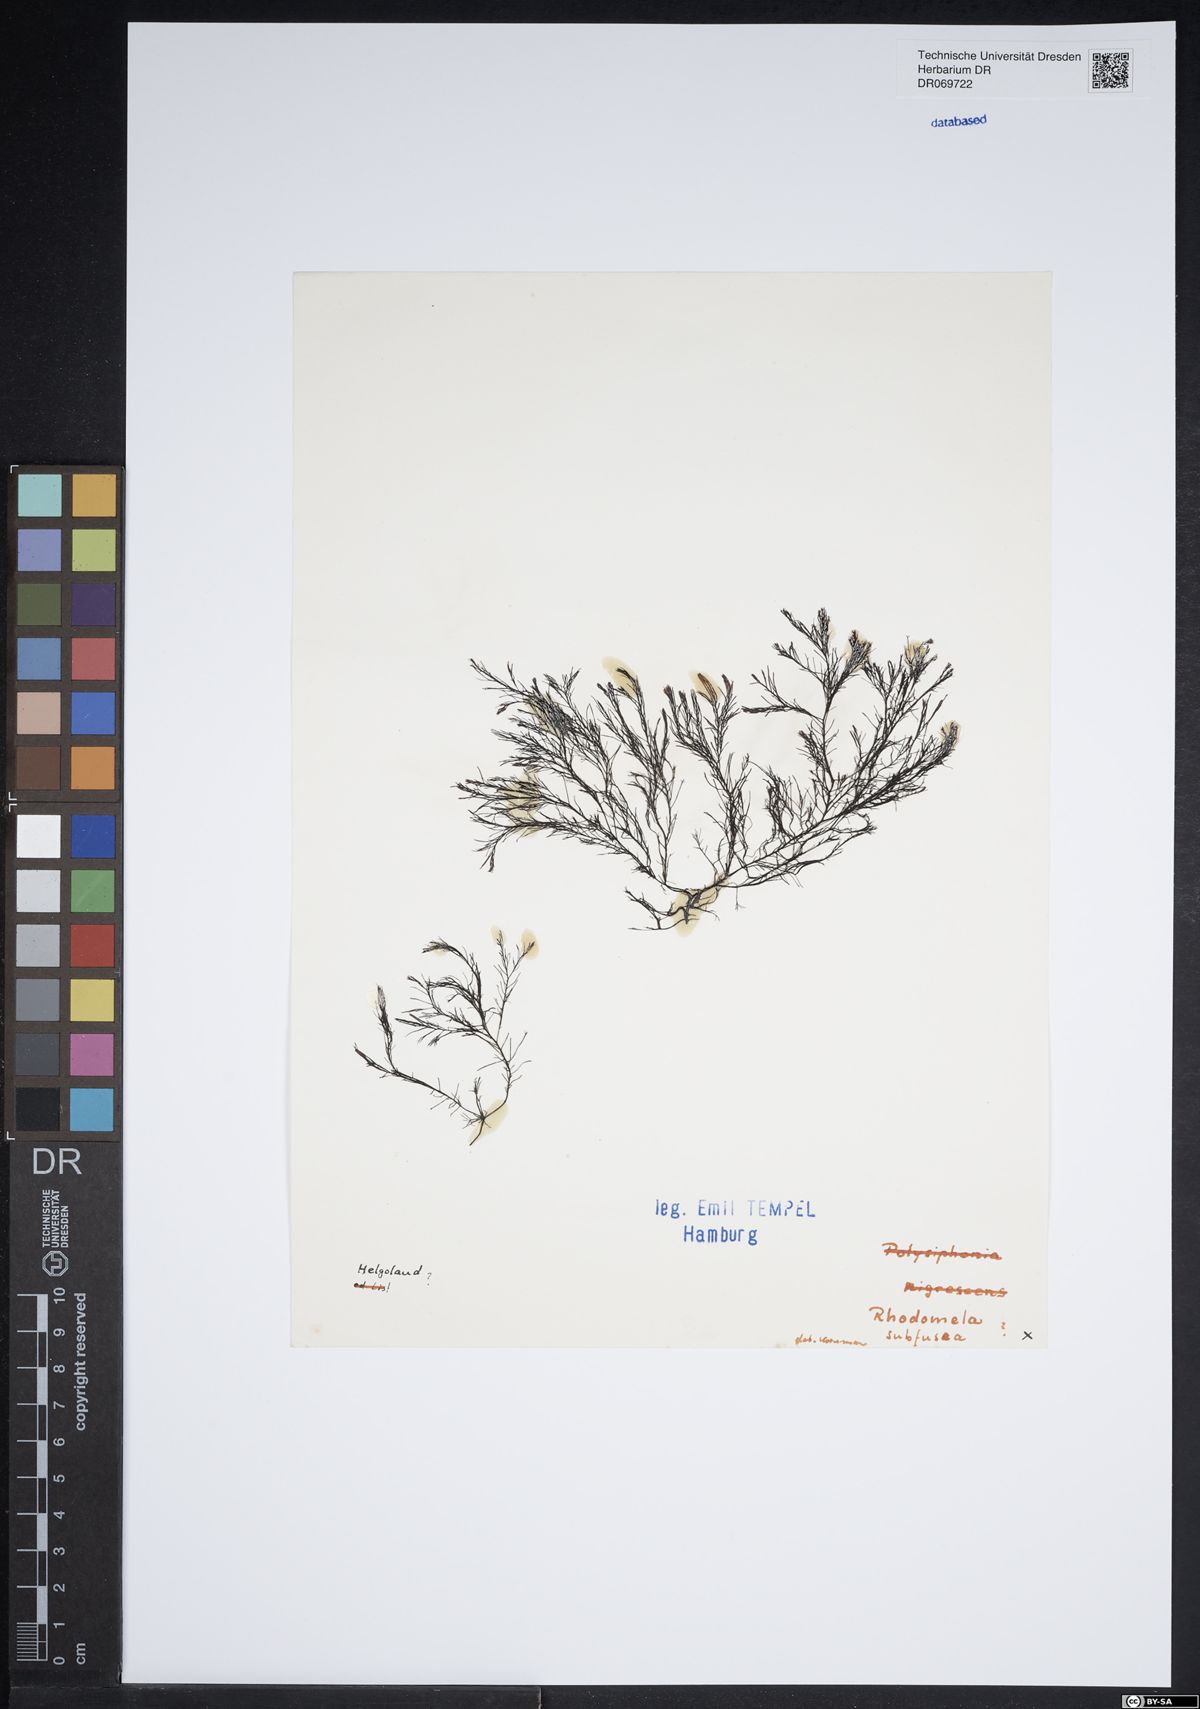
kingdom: Plantae
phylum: Rhodophyta
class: Florideophyceae
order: Ceramiales
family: Rhodomelaceae
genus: Rhodomela
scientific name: Rhodomela confervoides
